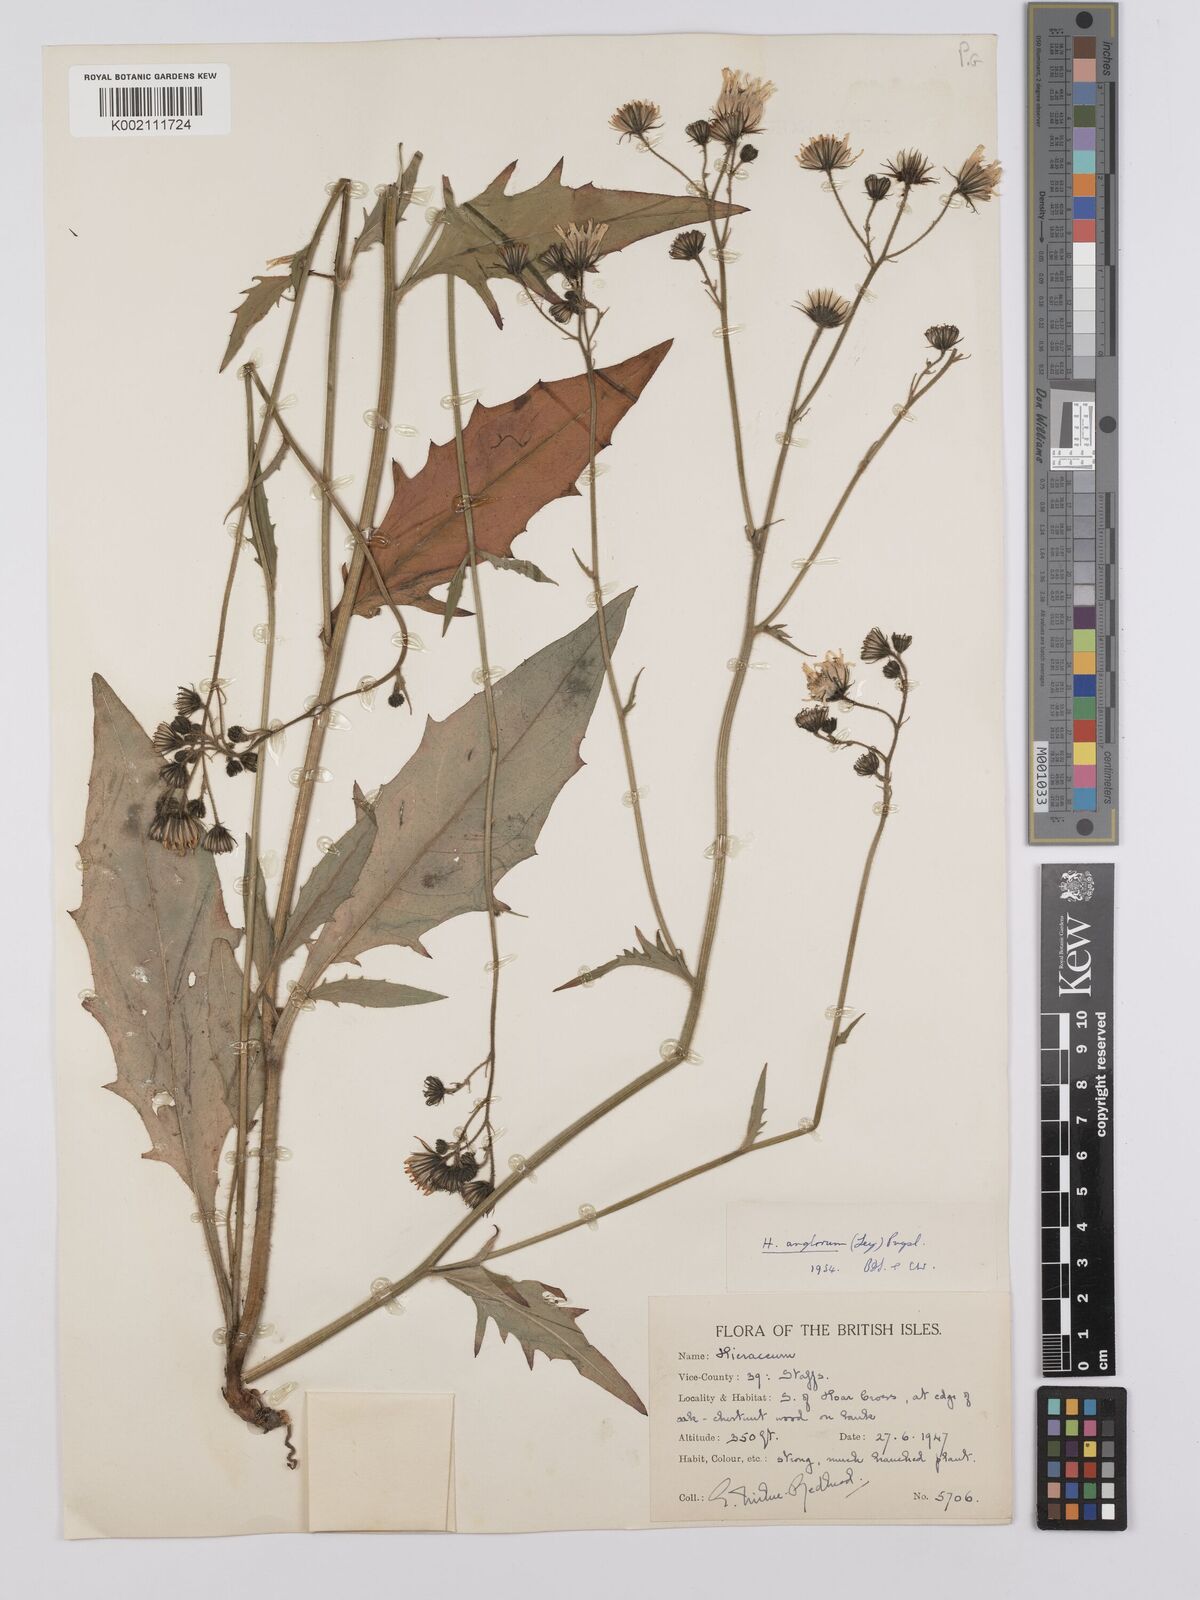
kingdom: Plantae
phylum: Tracheophyta
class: Magnoliopsida
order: Asterales
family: Asteraceae
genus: Hieracium
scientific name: Hieracium anglorum
